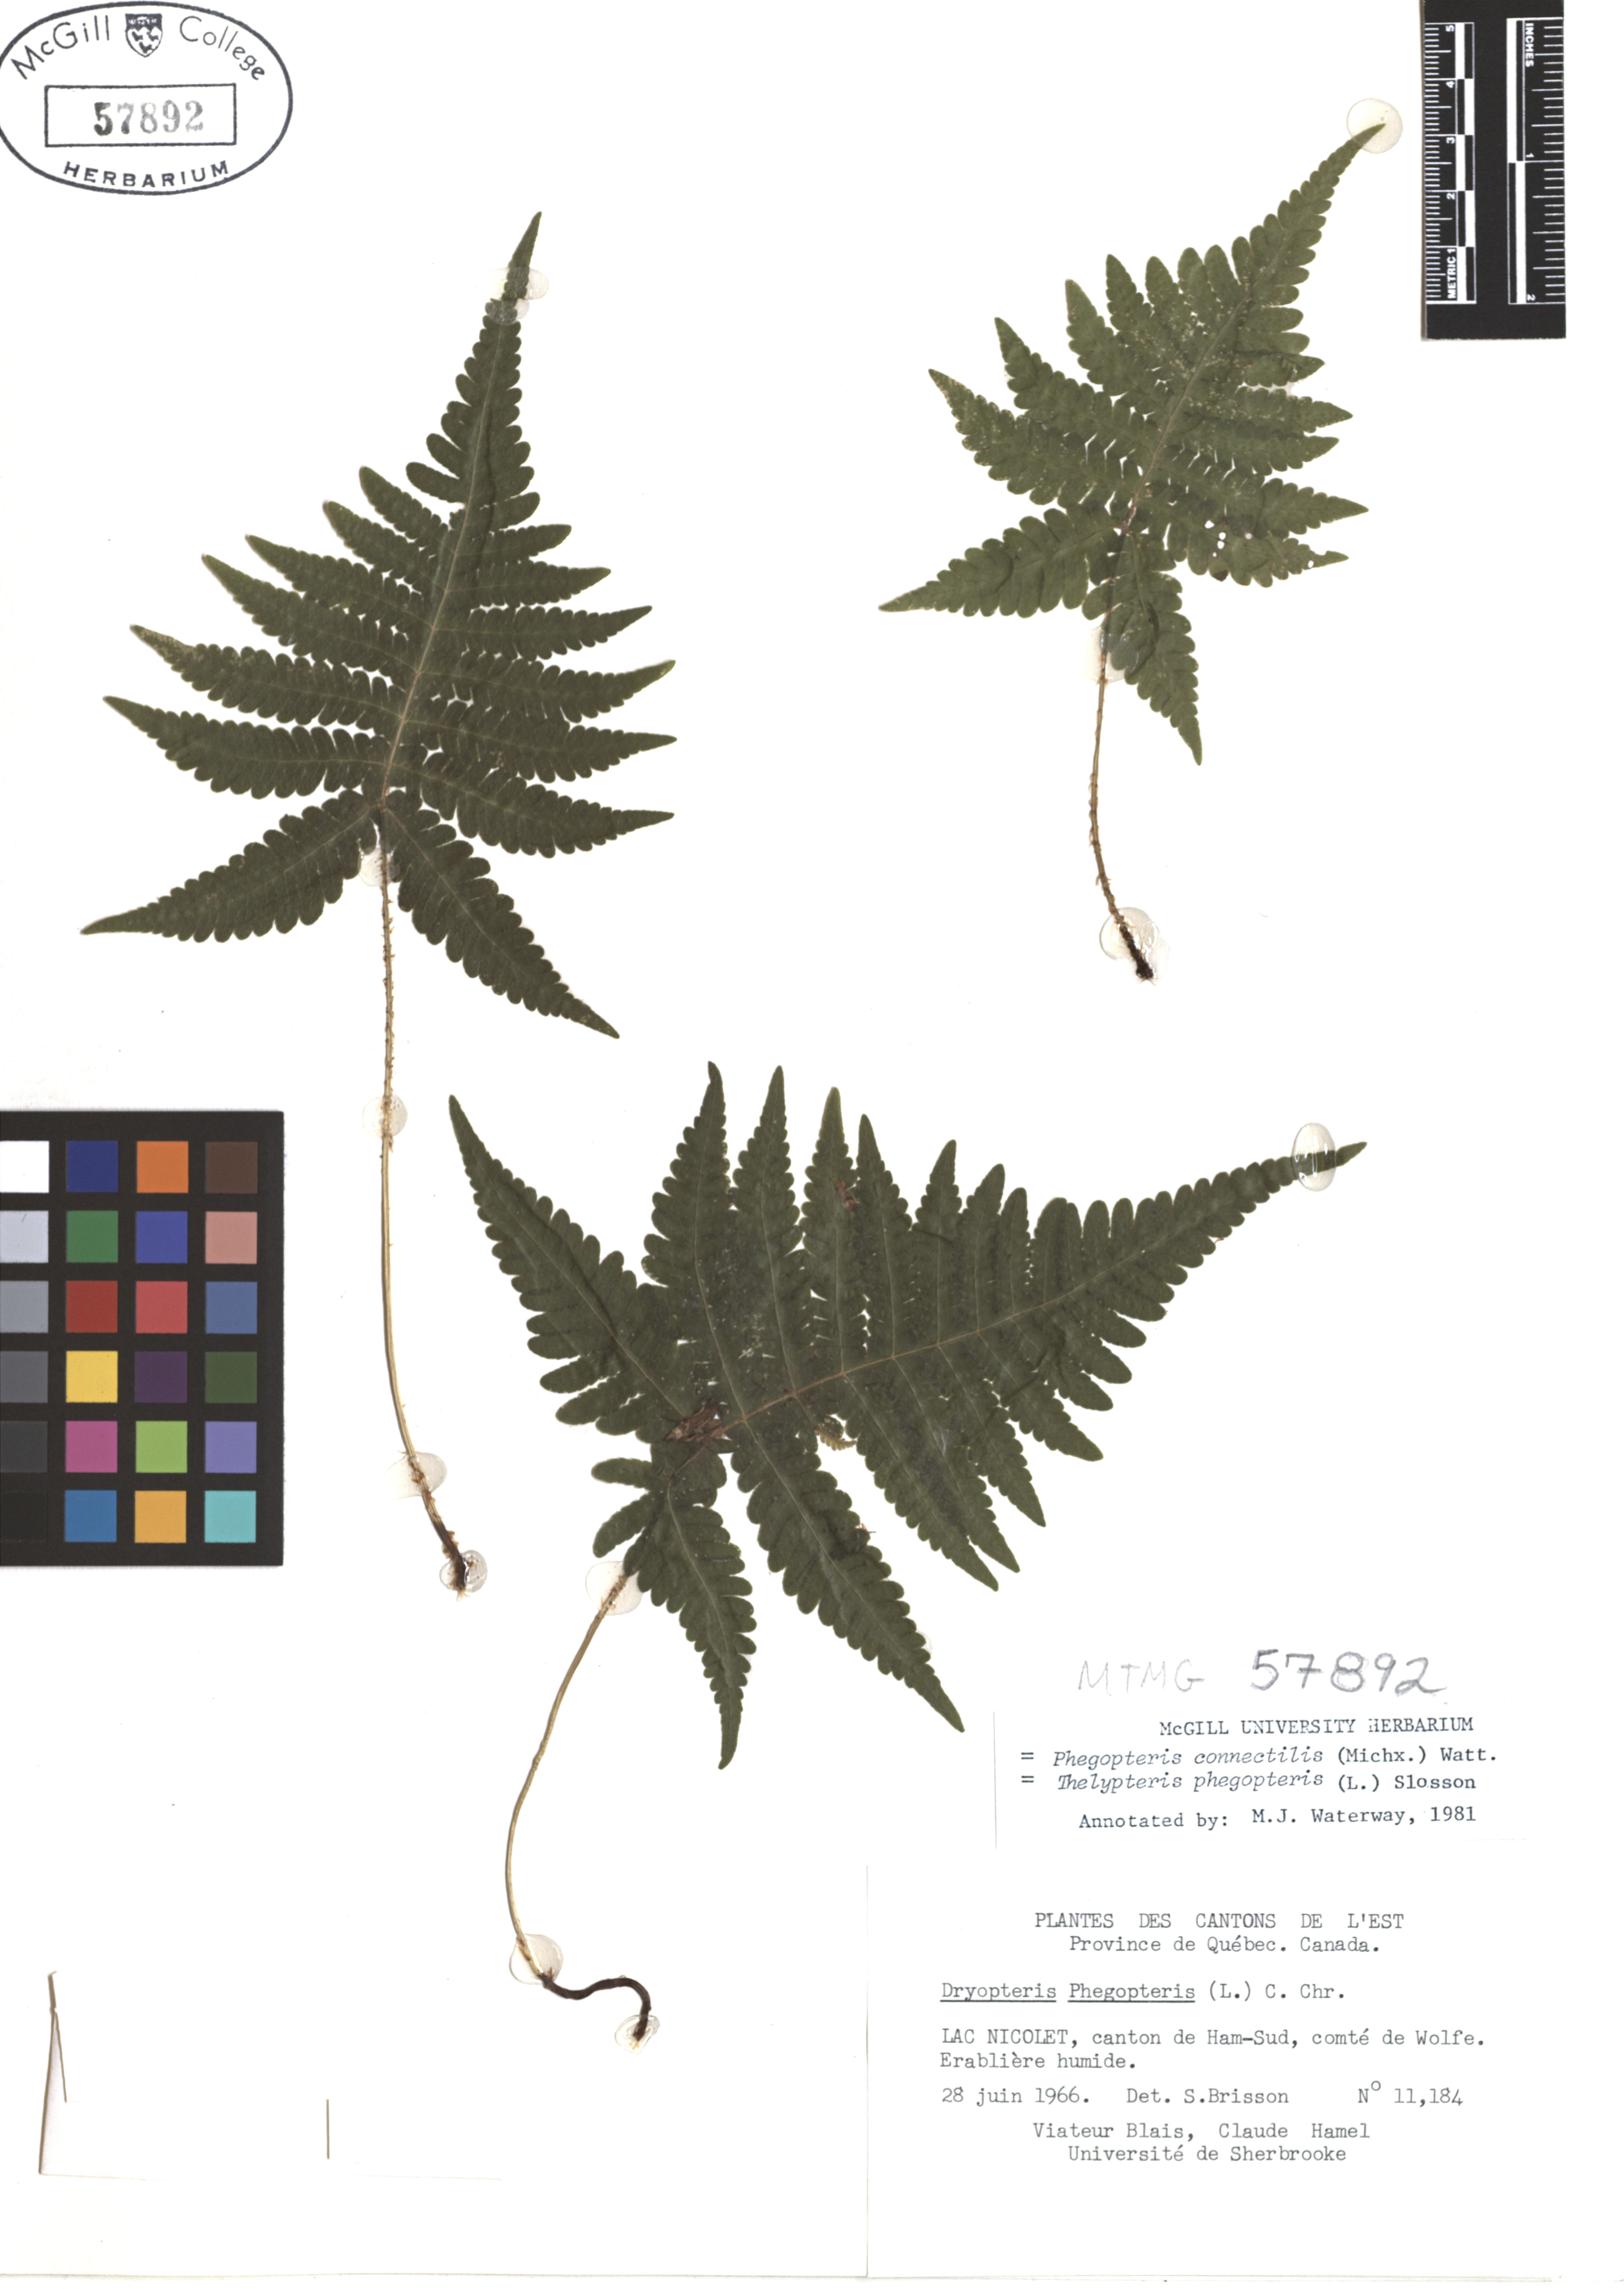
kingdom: Plantae
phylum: Tracheophyta
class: Polypodiopsida
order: Polypodiales
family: Thelypteridaceae
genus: Phegopteris
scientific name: Phegopteris connectilis
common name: Beech fern
